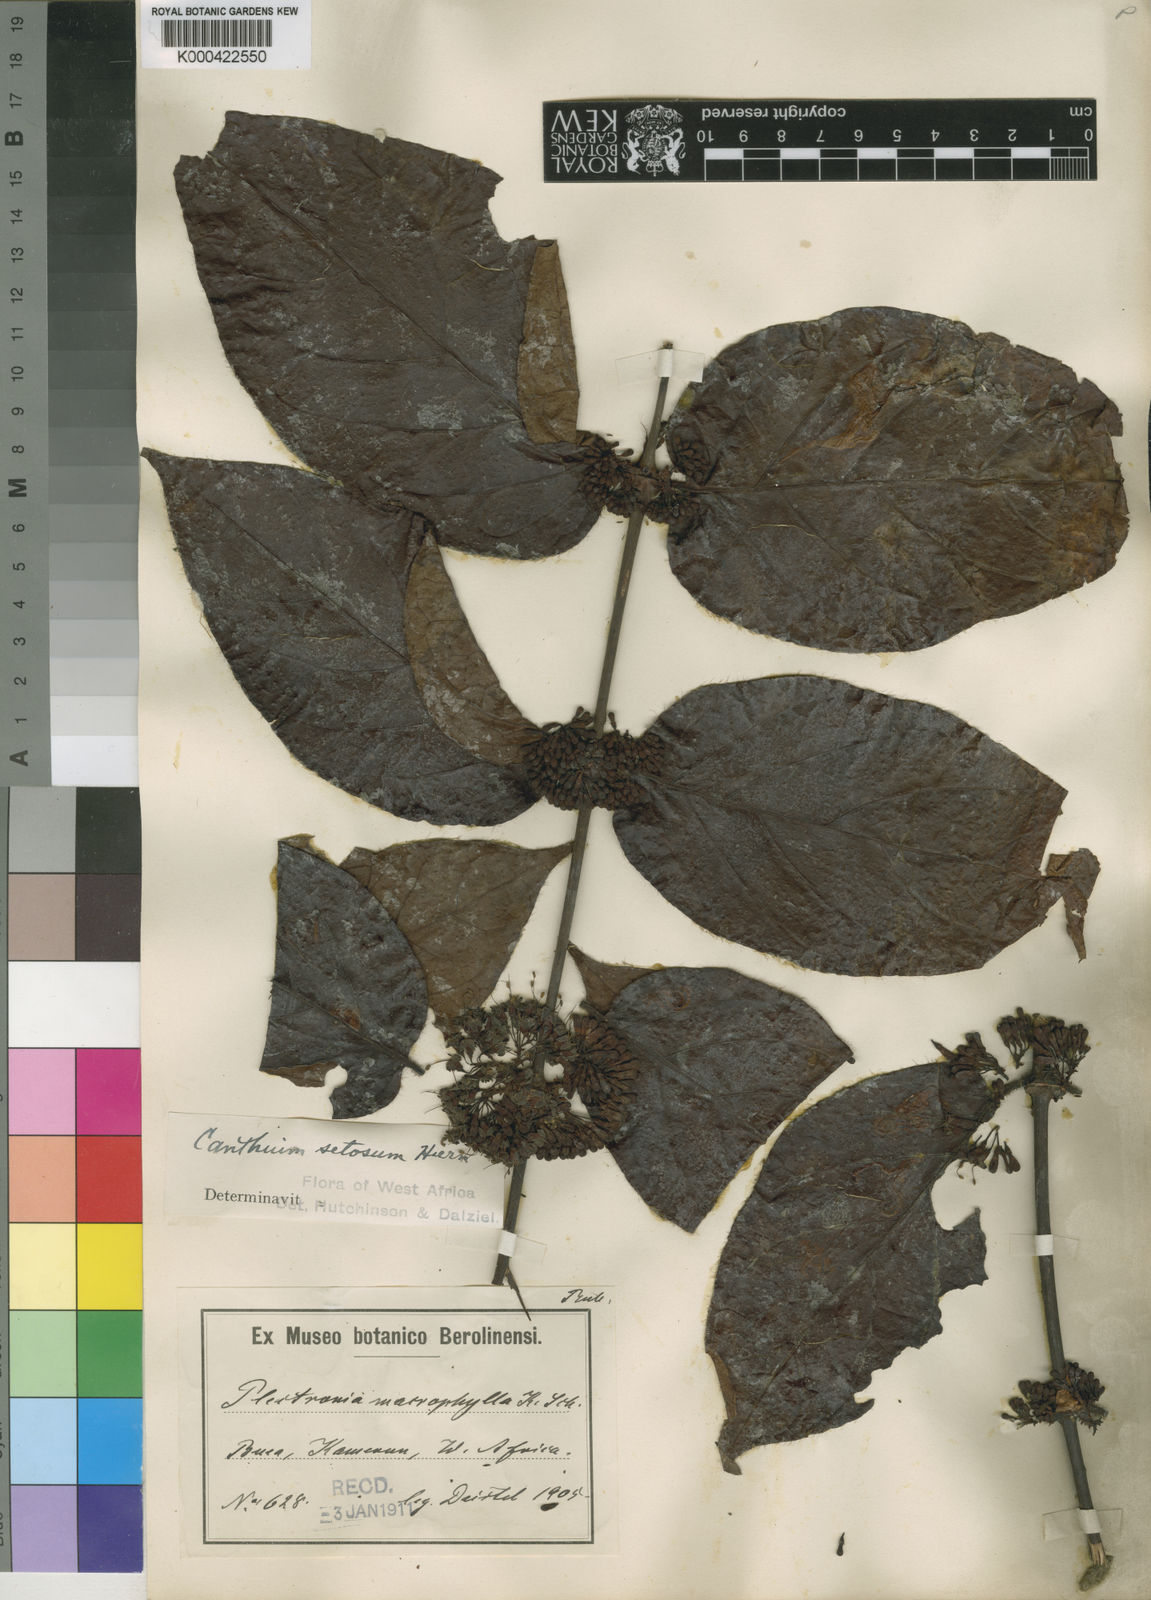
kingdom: Plantae
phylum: Tracheophyta
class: Magnoliopsida
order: Gentianales
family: Rubiaceae
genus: Keetia
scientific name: Keetia hispida
